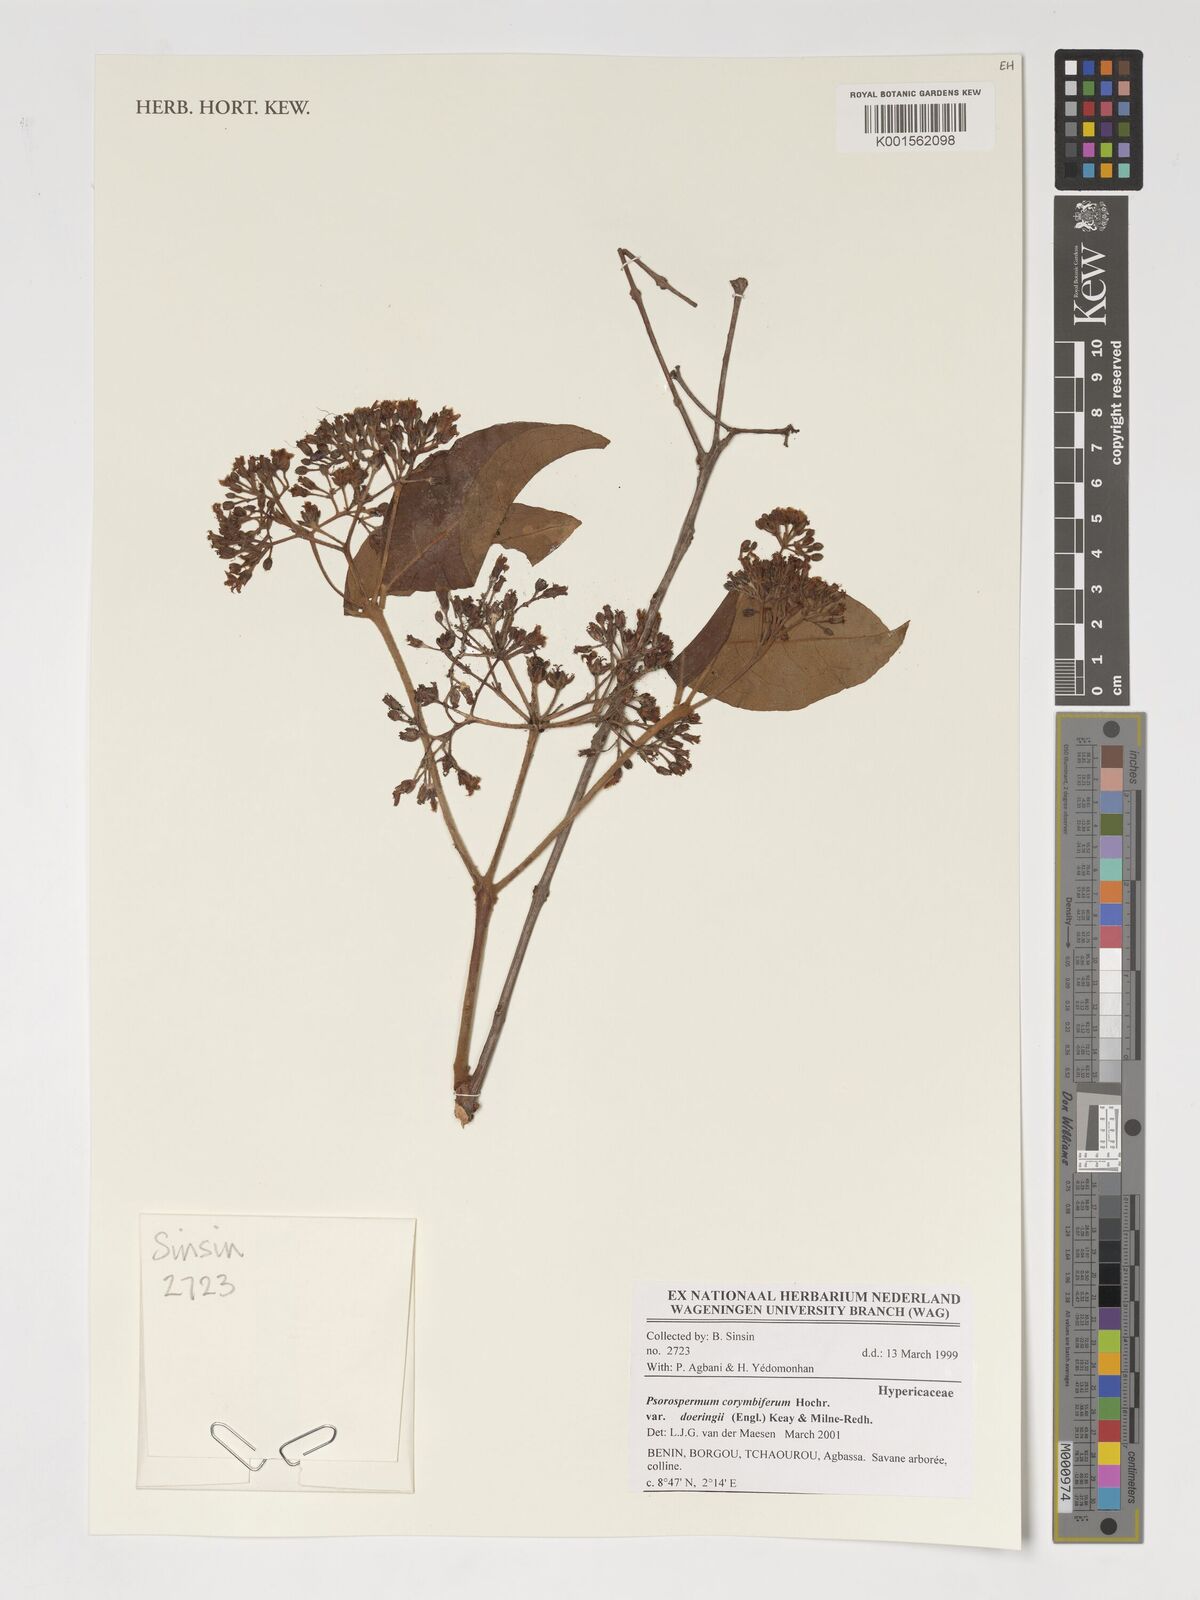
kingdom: Plantae
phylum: Tracheophyta
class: Magnoliopsida
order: Malpighiales
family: Hypericaceae
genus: Psorospermum
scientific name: Psorospermum corymbiferum
